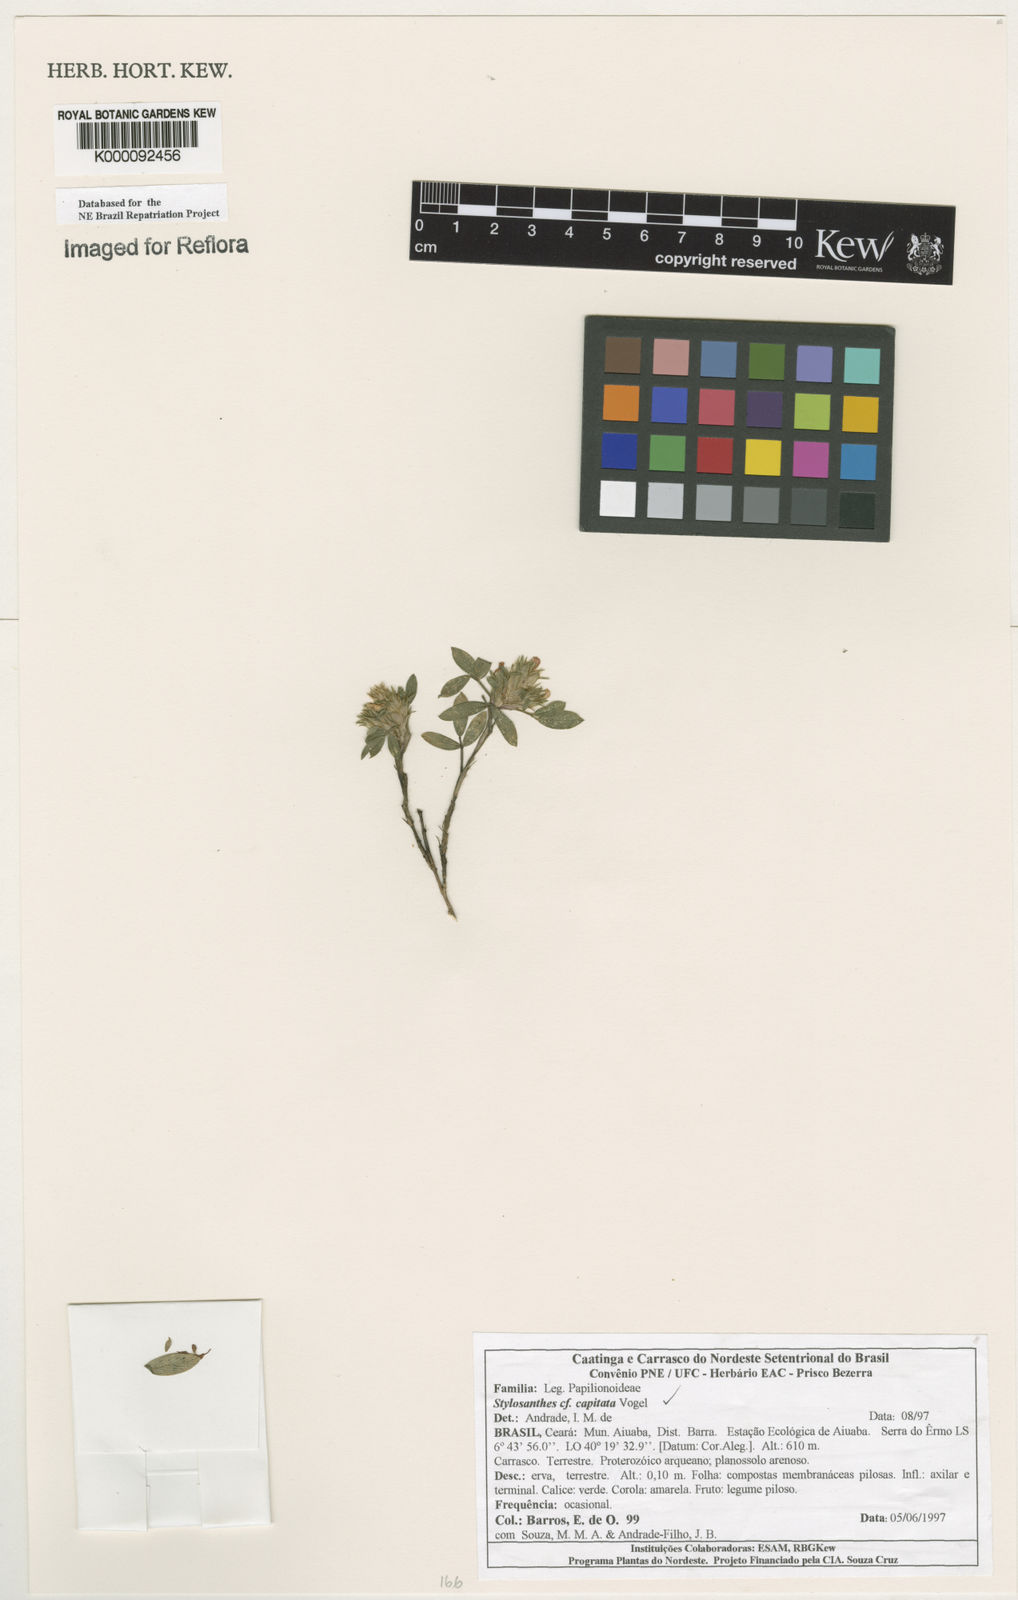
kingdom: Plantae
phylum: Tracheophyta
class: Magnoliopsida
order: Fabales
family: Fabaceae
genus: Stylosanthes
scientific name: Stylosanthes capitata
